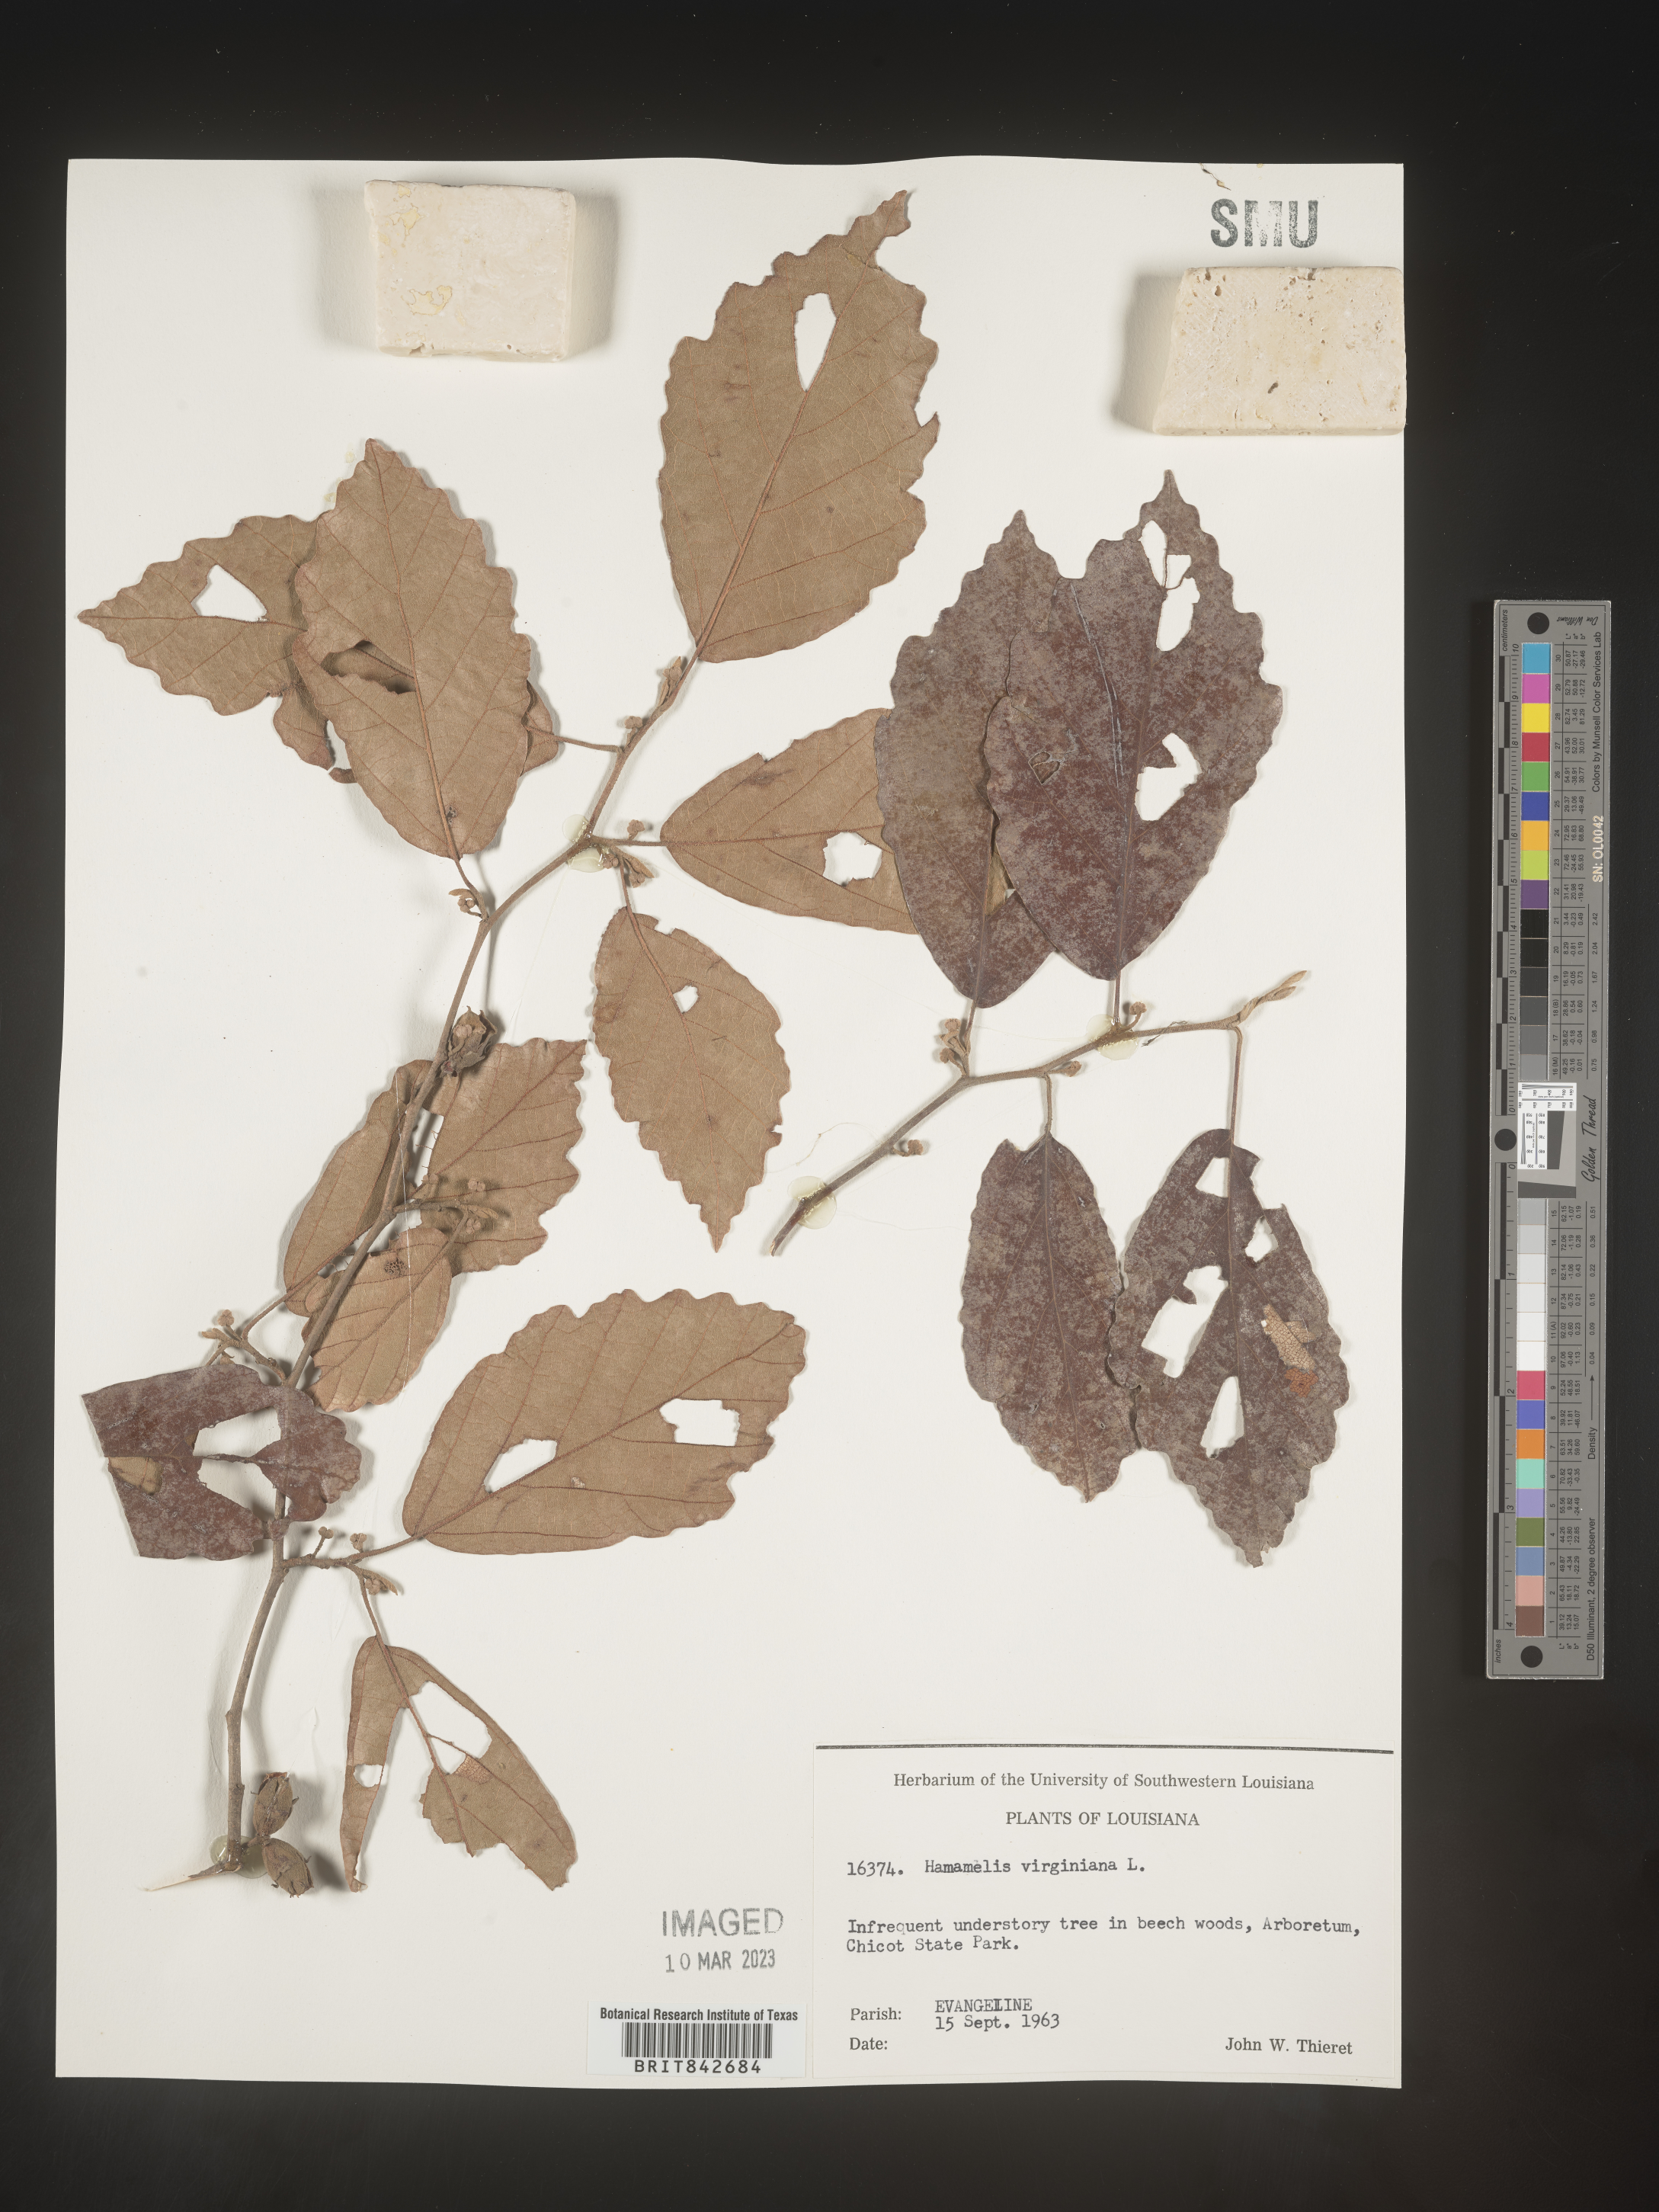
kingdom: Plantae
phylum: Tracheophyta
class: Magnoliopsida
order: Saxifragales
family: Hamamelidaceae
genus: Hamamelis
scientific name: Hamamelis virginiana
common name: Witch-hazel
